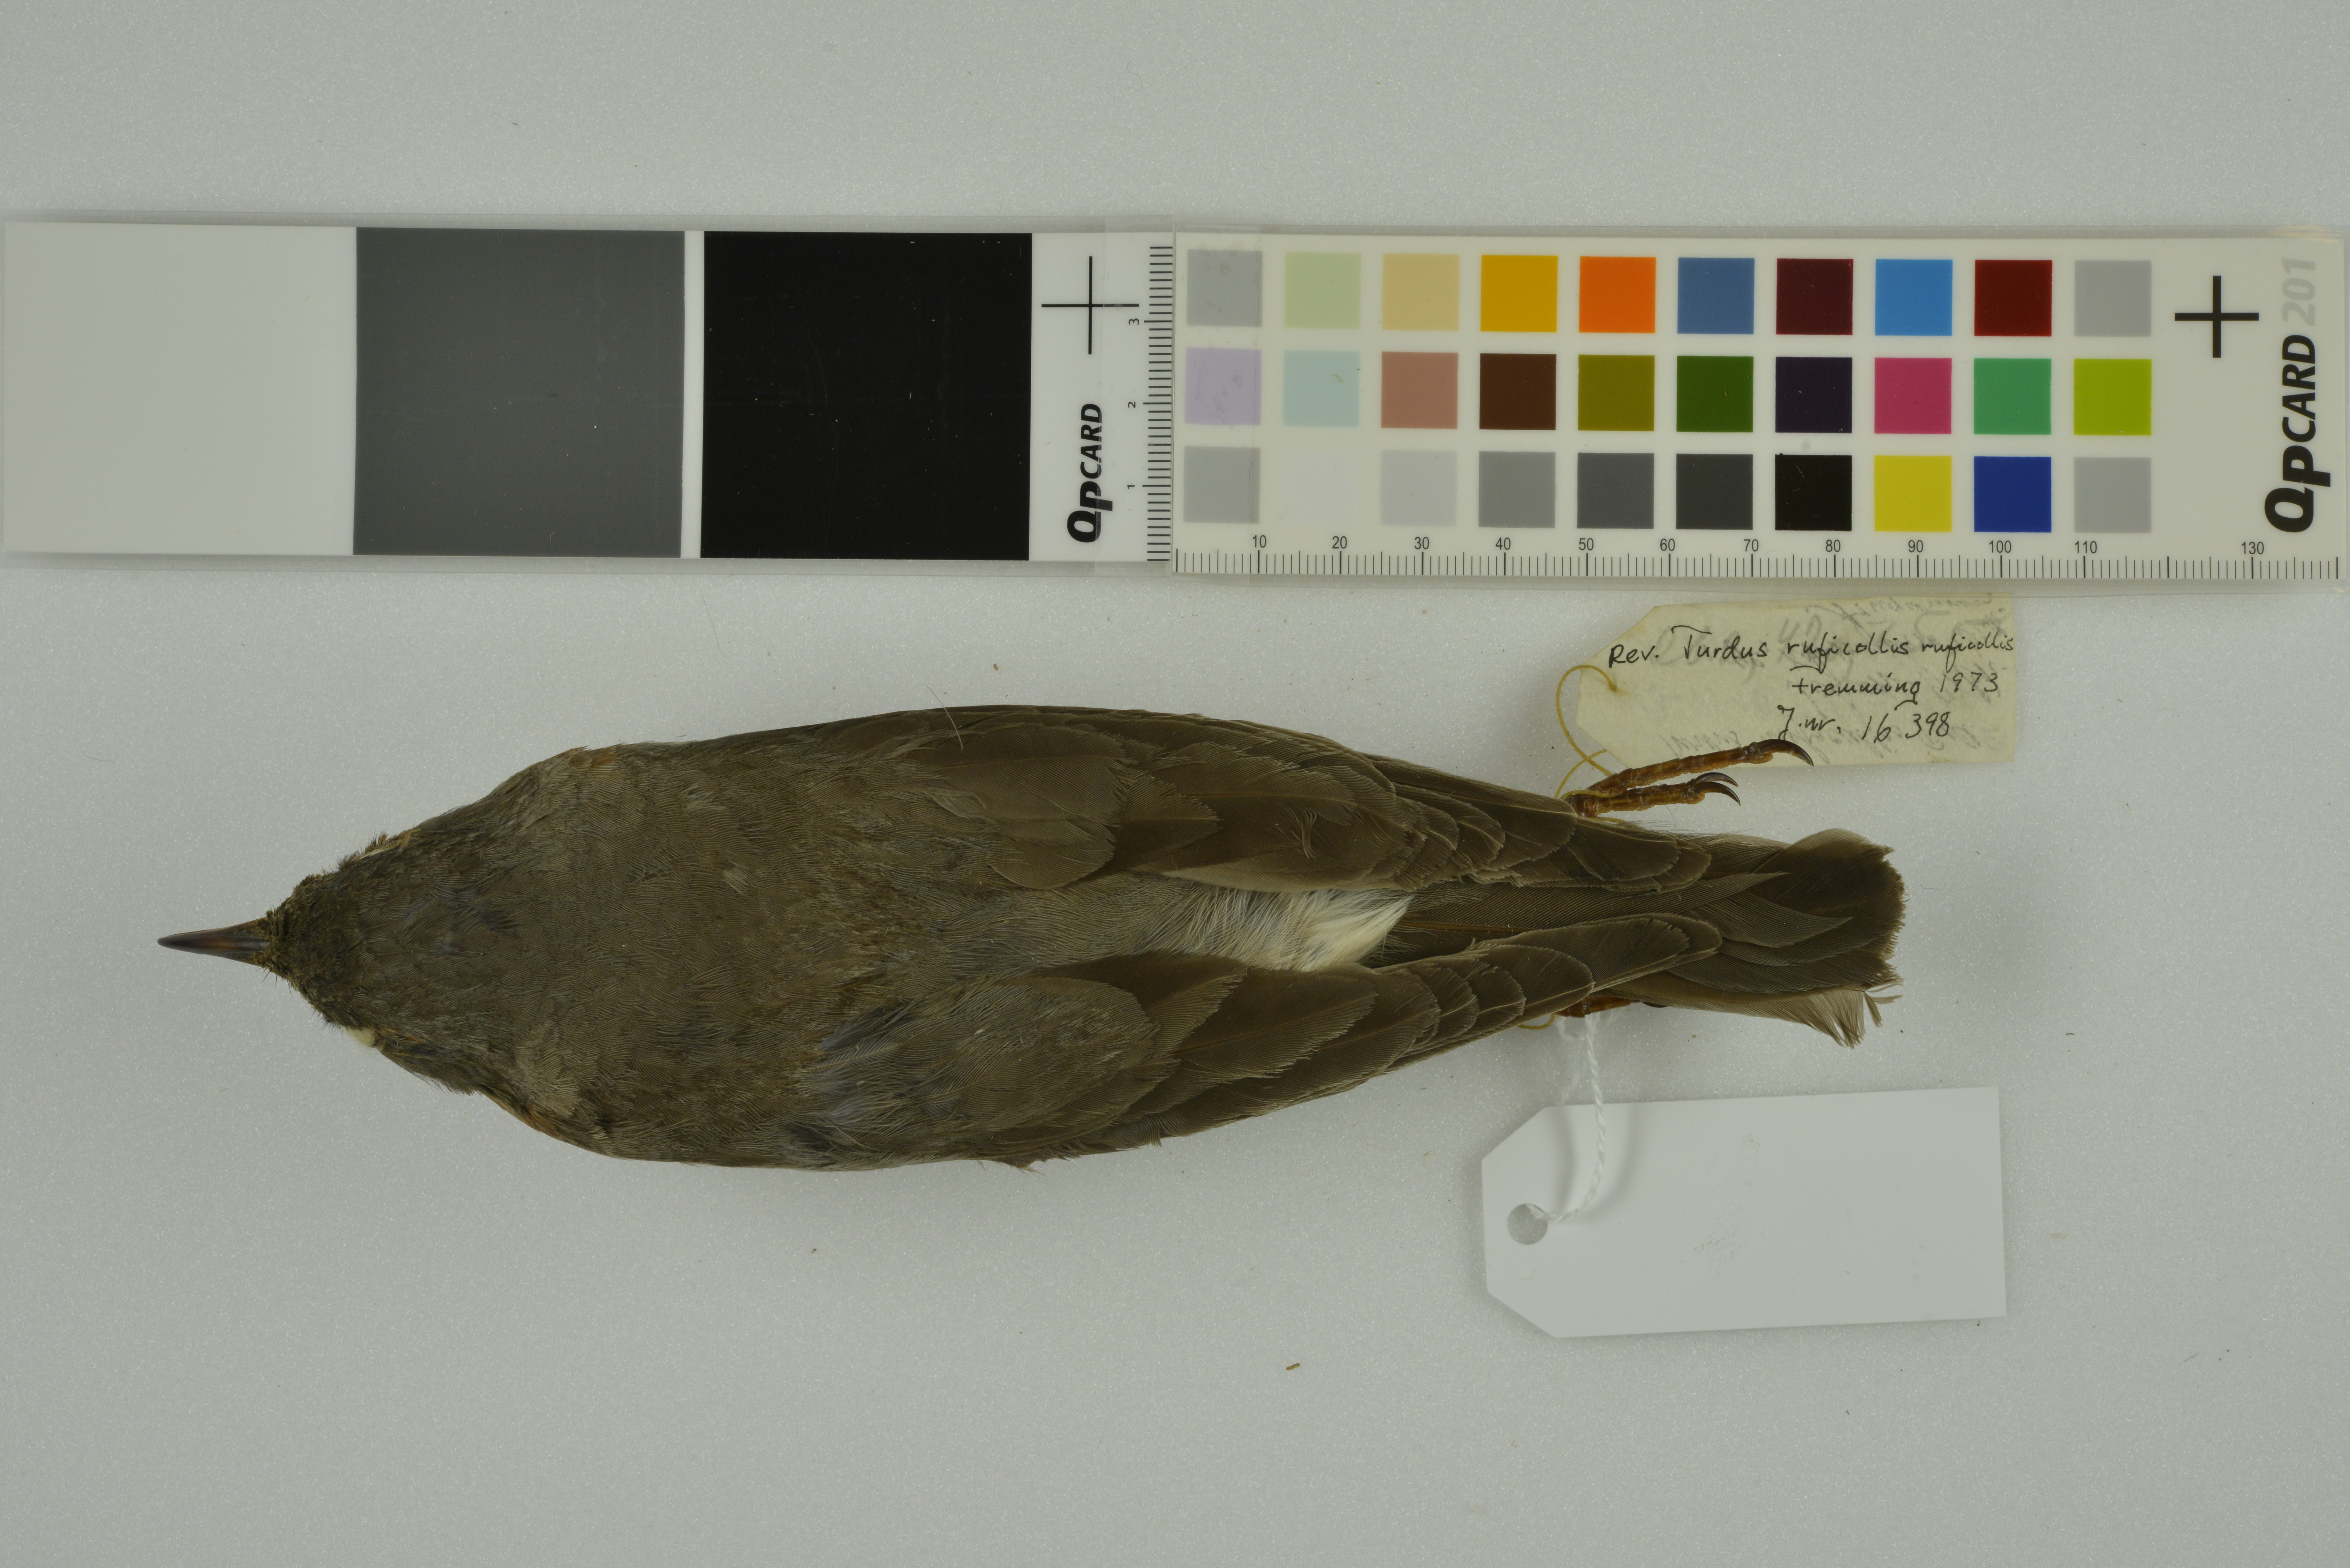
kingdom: Animalia
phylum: Chordata
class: Aves
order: Passeriformes
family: Turdidae
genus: Turdus
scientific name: Turdus ruficollis
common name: Red-throated thrush
